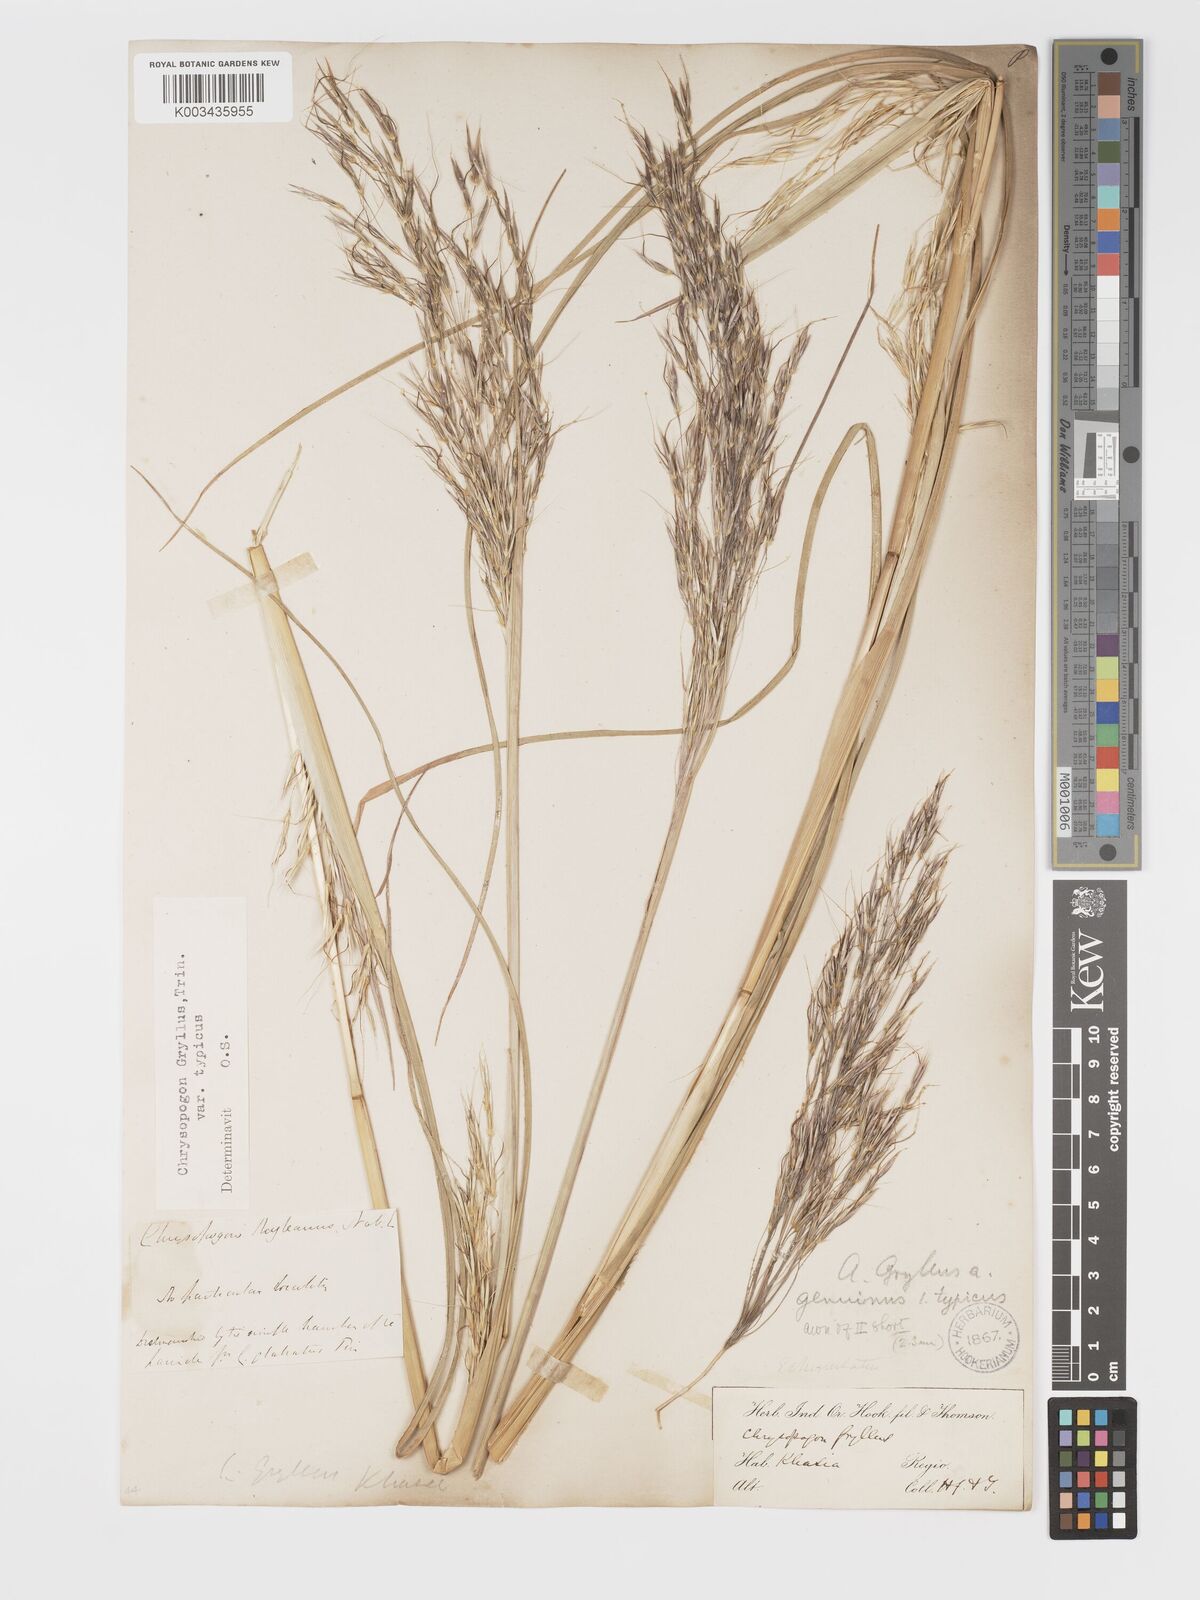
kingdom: Plantae
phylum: Tracheophyta
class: Liliopsida
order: Poales
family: Poaceae
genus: Chrysopogon
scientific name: Chrysopogon gryllus
